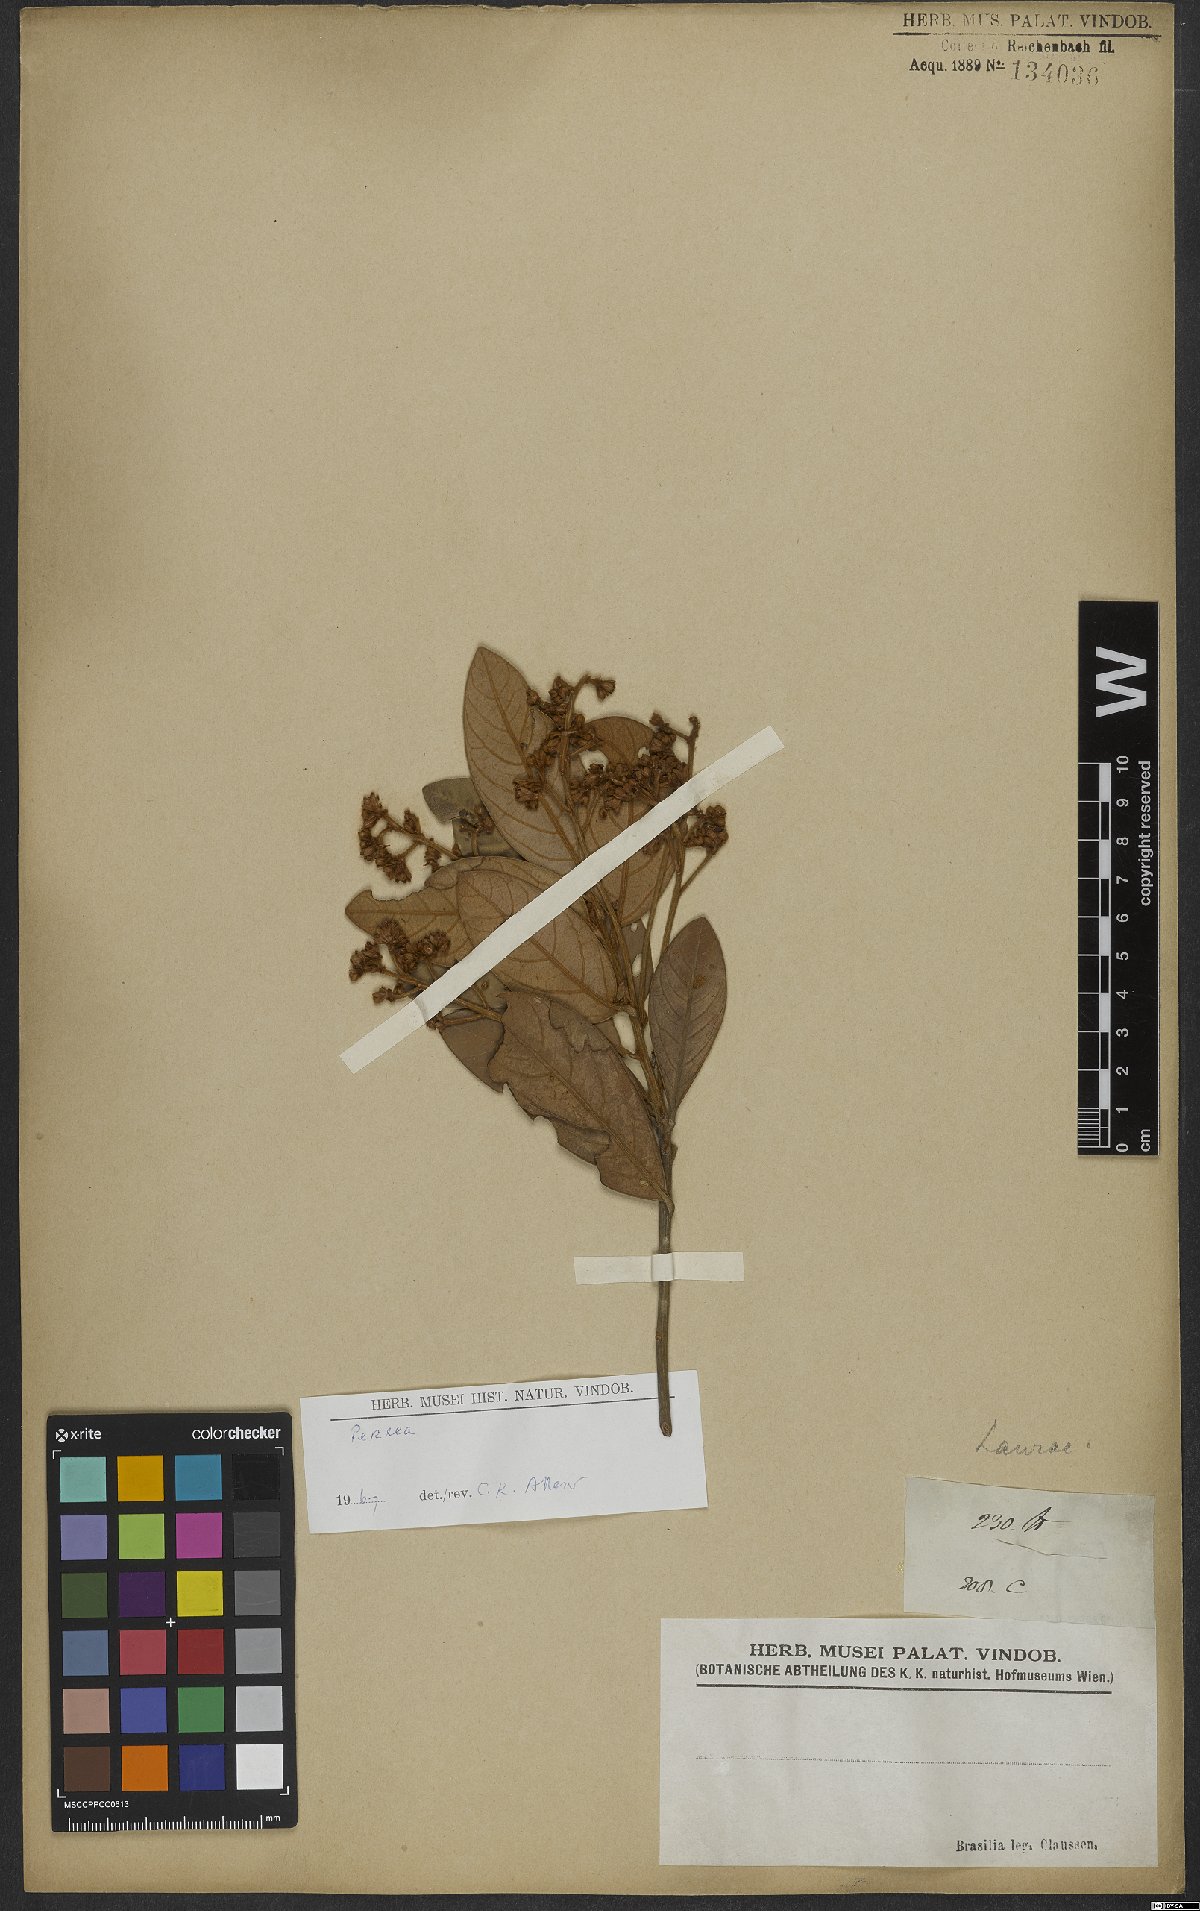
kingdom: Plantae
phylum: Tracheophyta
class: Magnoliopsida
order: Laurales
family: Lauraceae
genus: Persea
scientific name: Persea
